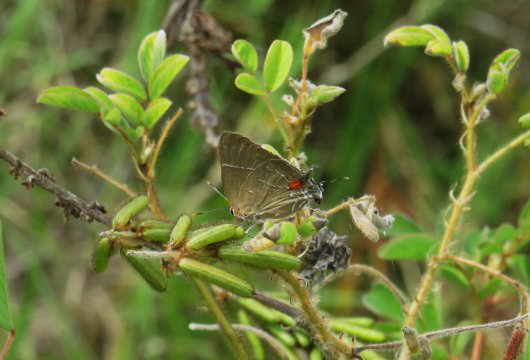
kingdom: Animalia
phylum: Arthropoda
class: Insecta
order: Lepidoptera
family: Lycaenidae
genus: Parrhasius
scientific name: Parrhasius m-album
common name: White-m Hairstreak
